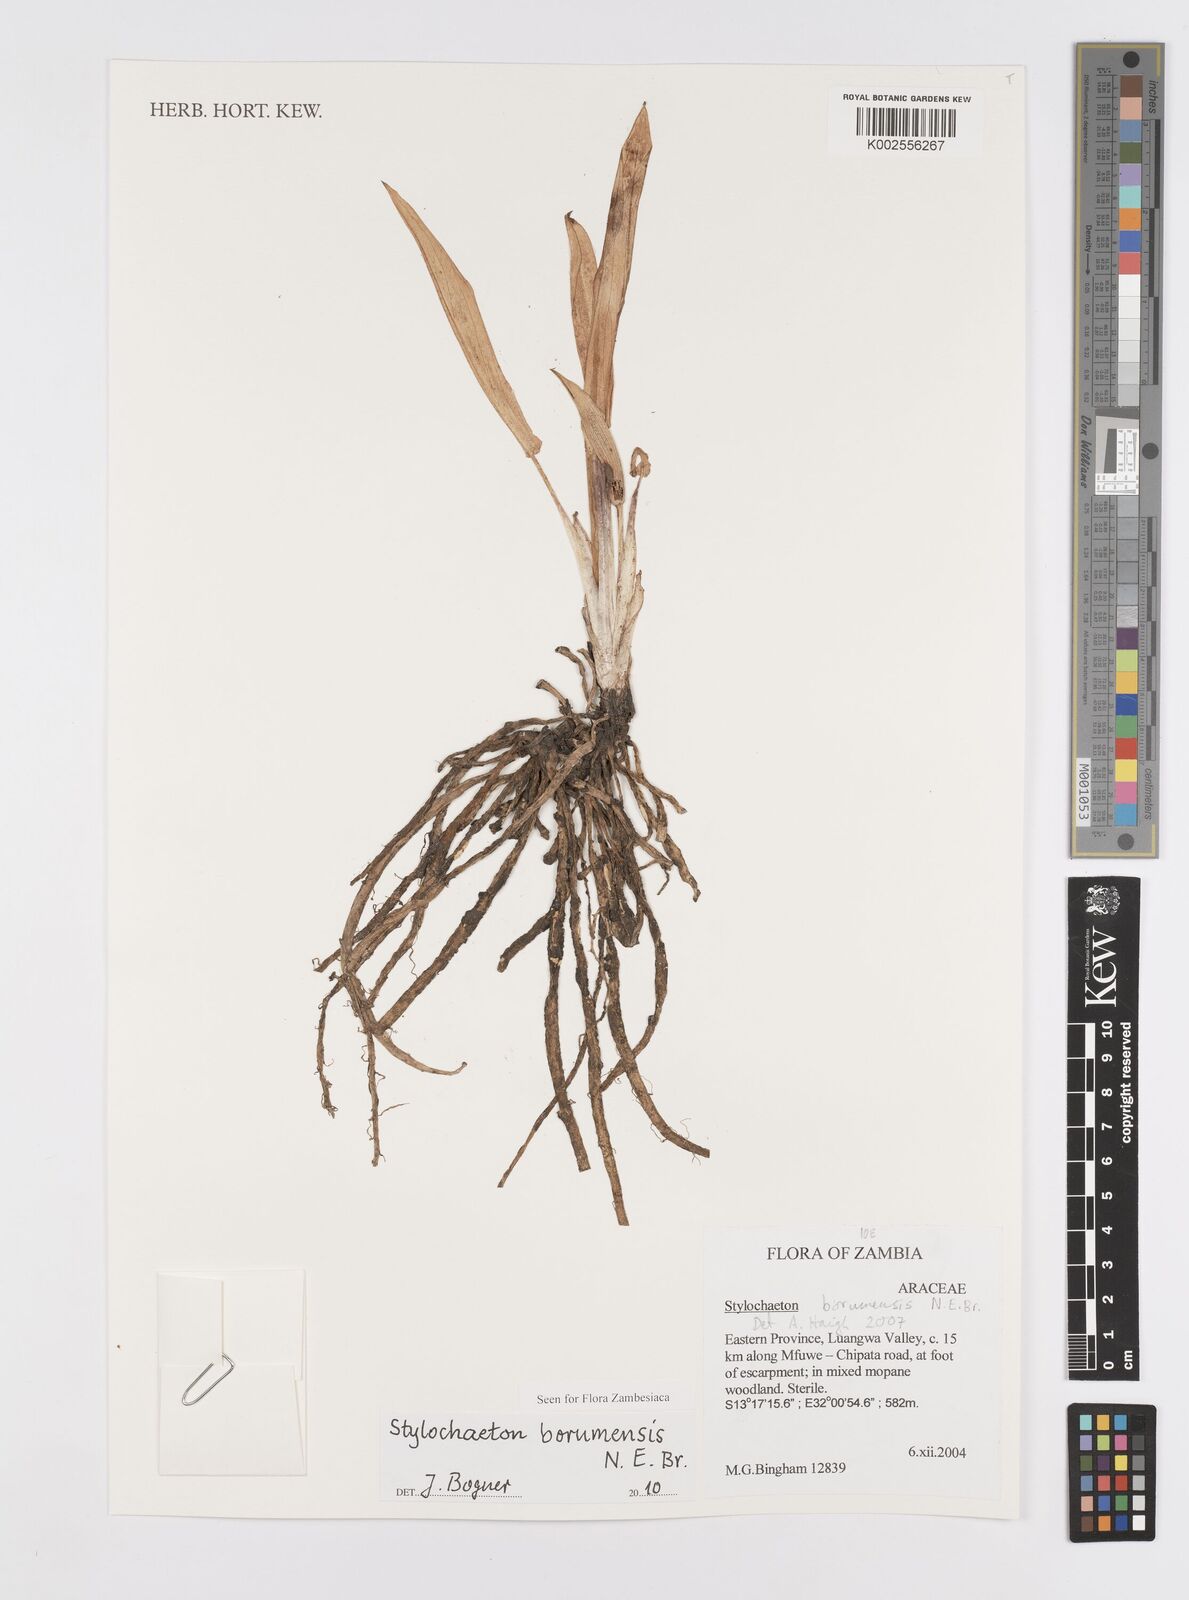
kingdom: Plantae
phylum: Tracheophyta
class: Liliopsida
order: Alismatales
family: Araceae
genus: Stylochaeton
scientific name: Stylochaeton borumense
